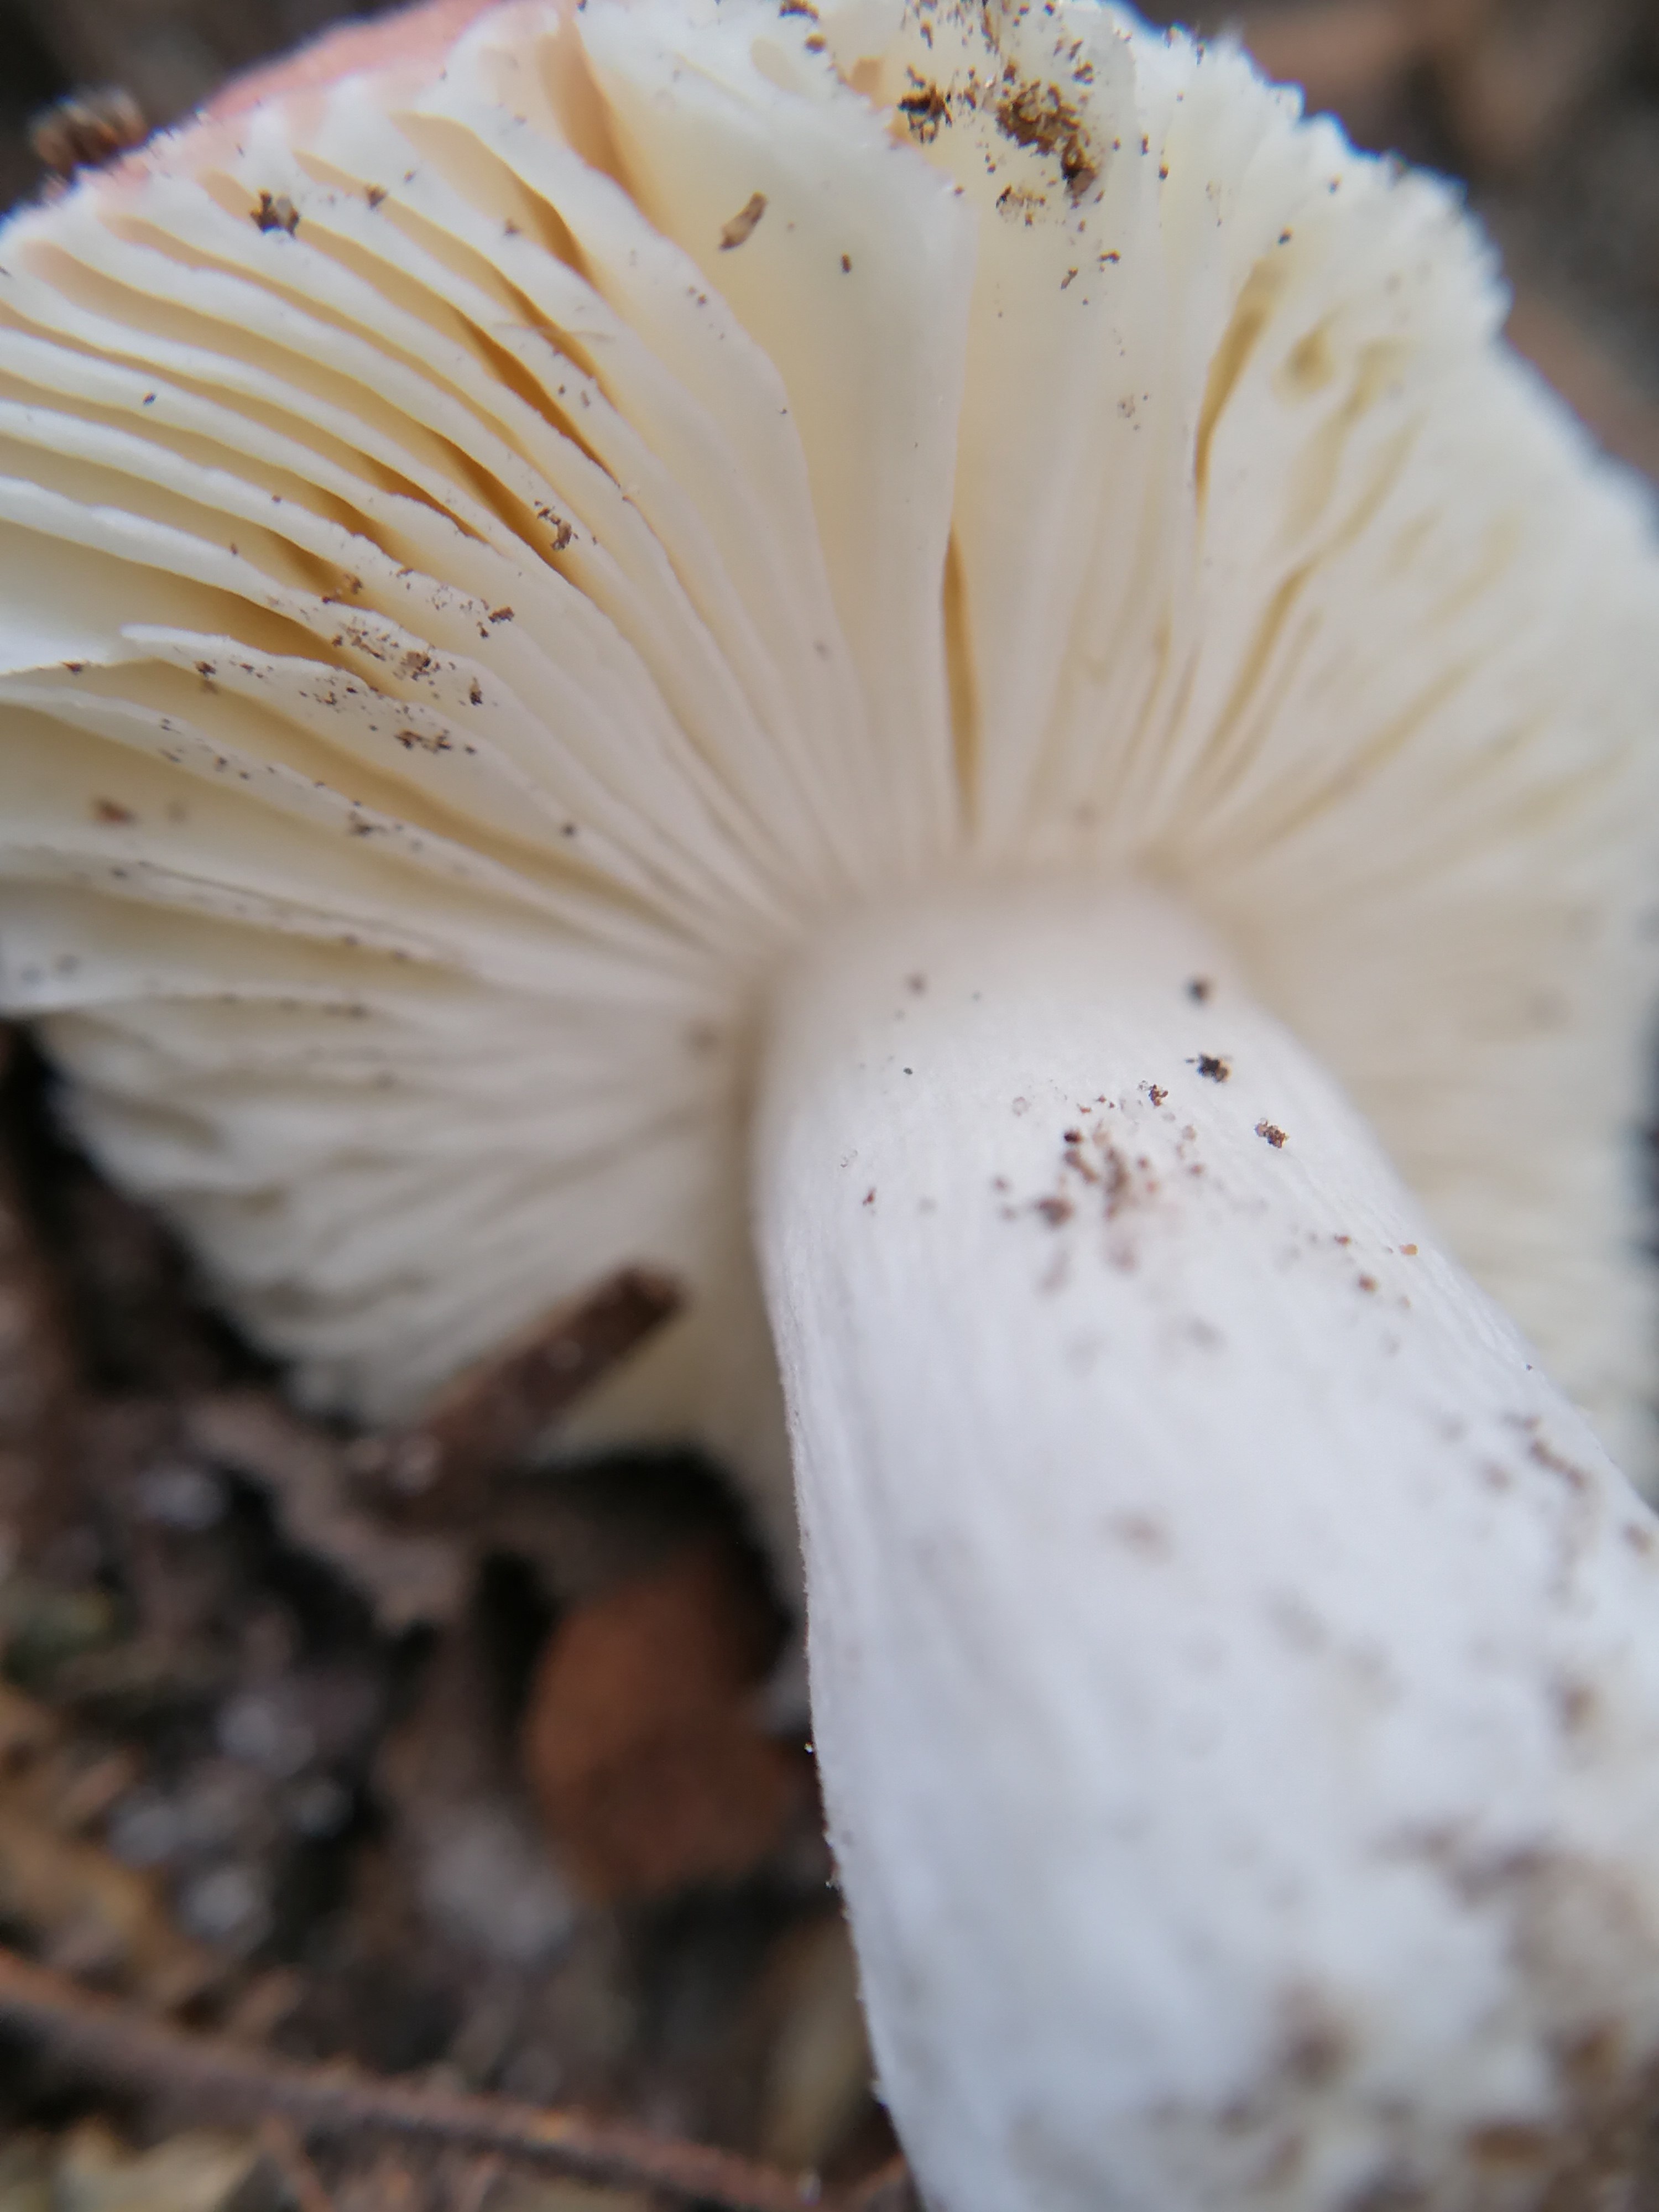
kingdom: Fungi
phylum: Basidiomycota
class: Agaricomycetes
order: Russulales
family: Russulaceae
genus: Russula
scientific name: Russula
